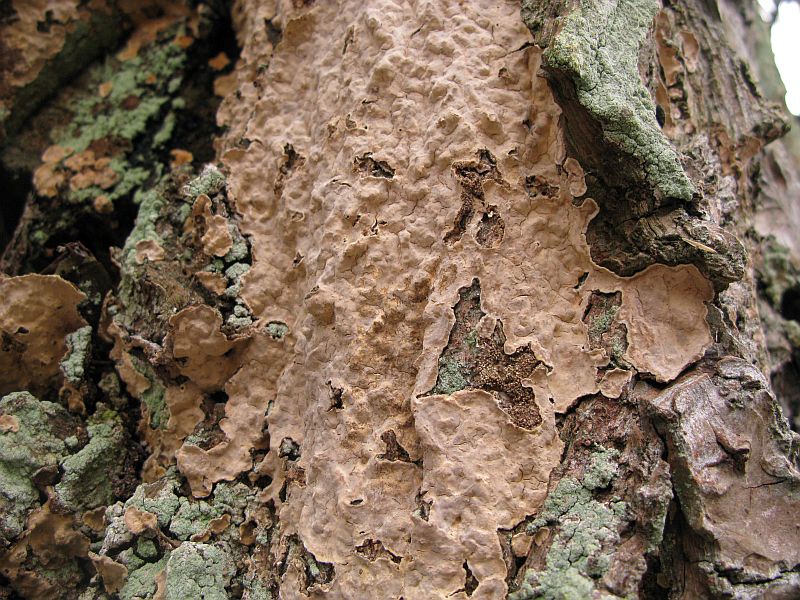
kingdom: Fungi
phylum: Basidiomycota
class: Agaricomycetes
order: Russulales
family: Stereaceae
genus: Stereum
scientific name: Stereum rugosum
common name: rynket lædersvamp
